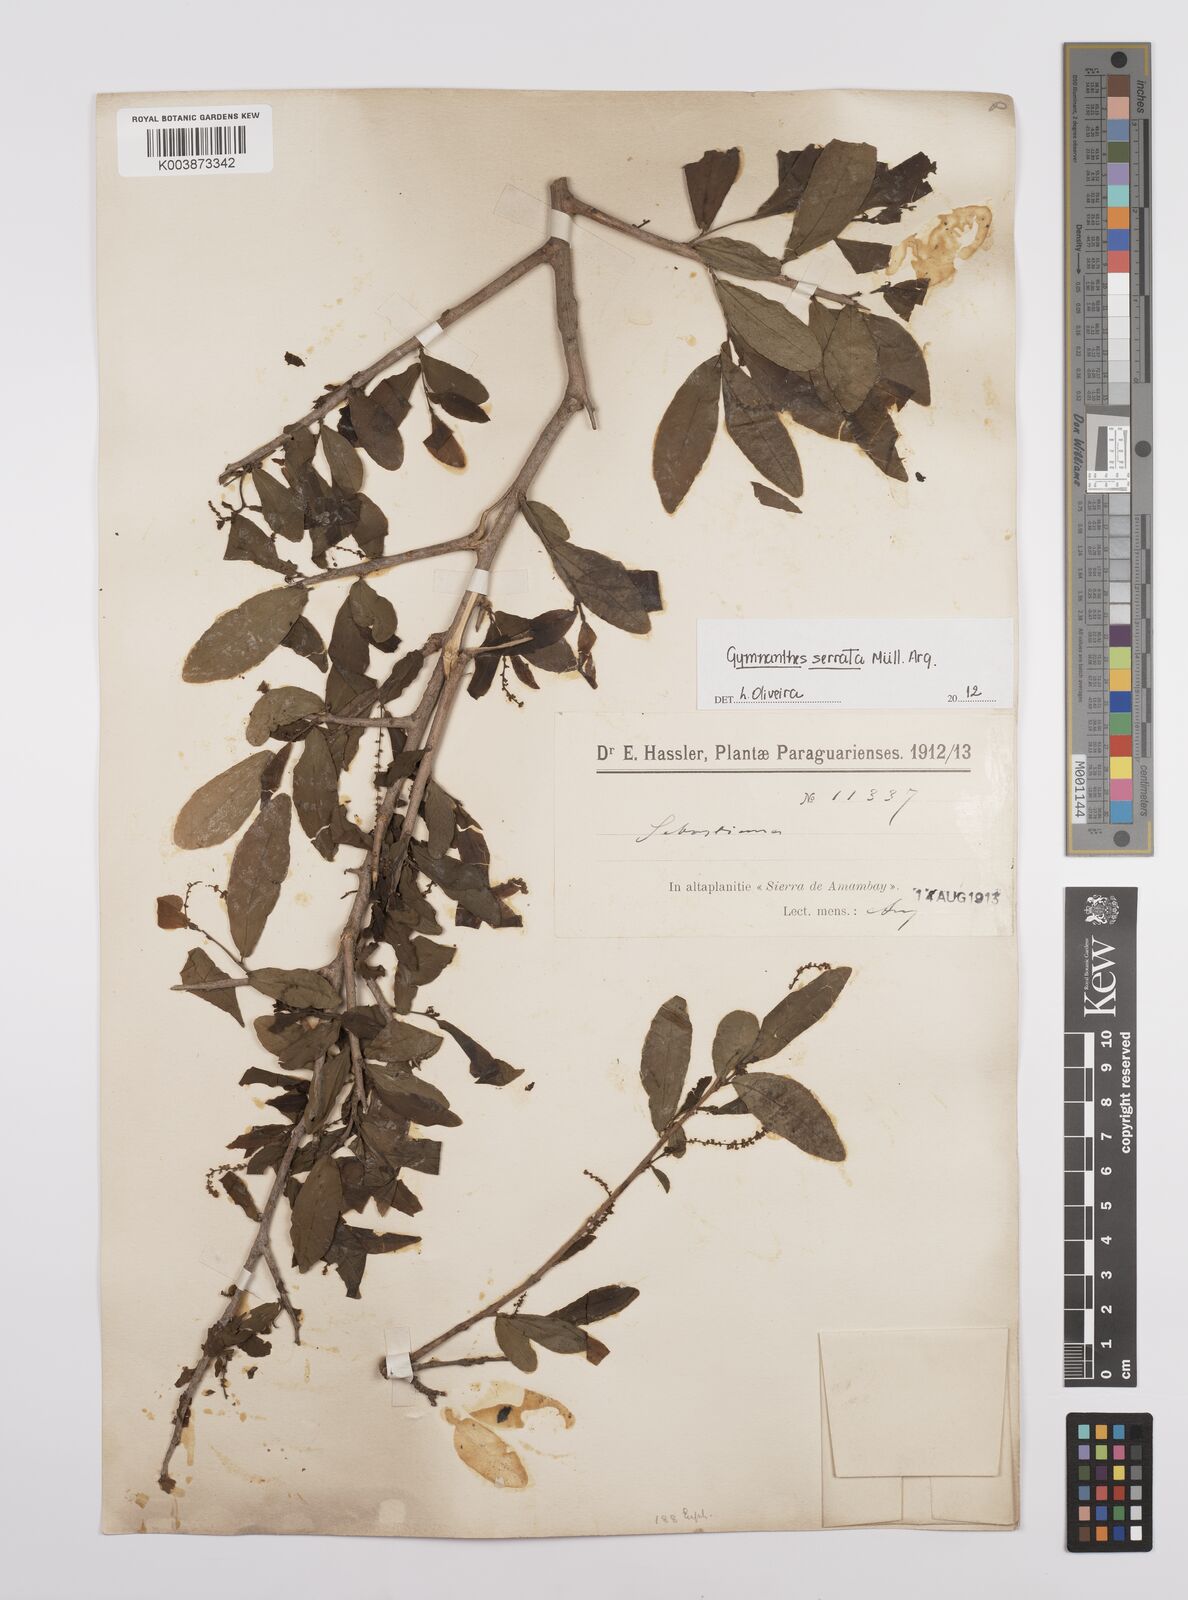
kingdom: Plantae
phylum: Tracheophyta
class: Magnoliopsida
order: Malpighiales
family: Euphorbiaceae
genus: Sebastiania
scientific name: Sebastiania serrata
